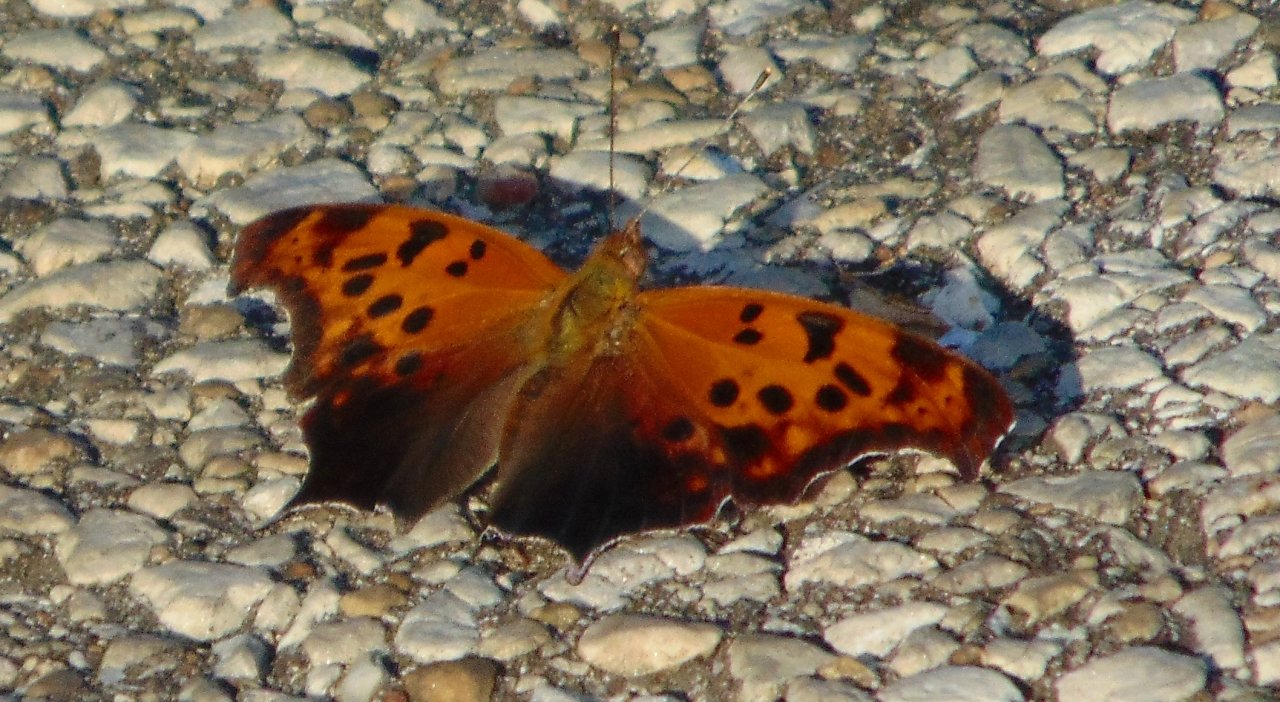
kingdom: Animalia
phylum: Arthropoda
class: Insecta
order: Lepidoptera
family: Nymphalidae
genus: Polygonia
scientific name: Polygonia interrogationis
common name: Question Mark
